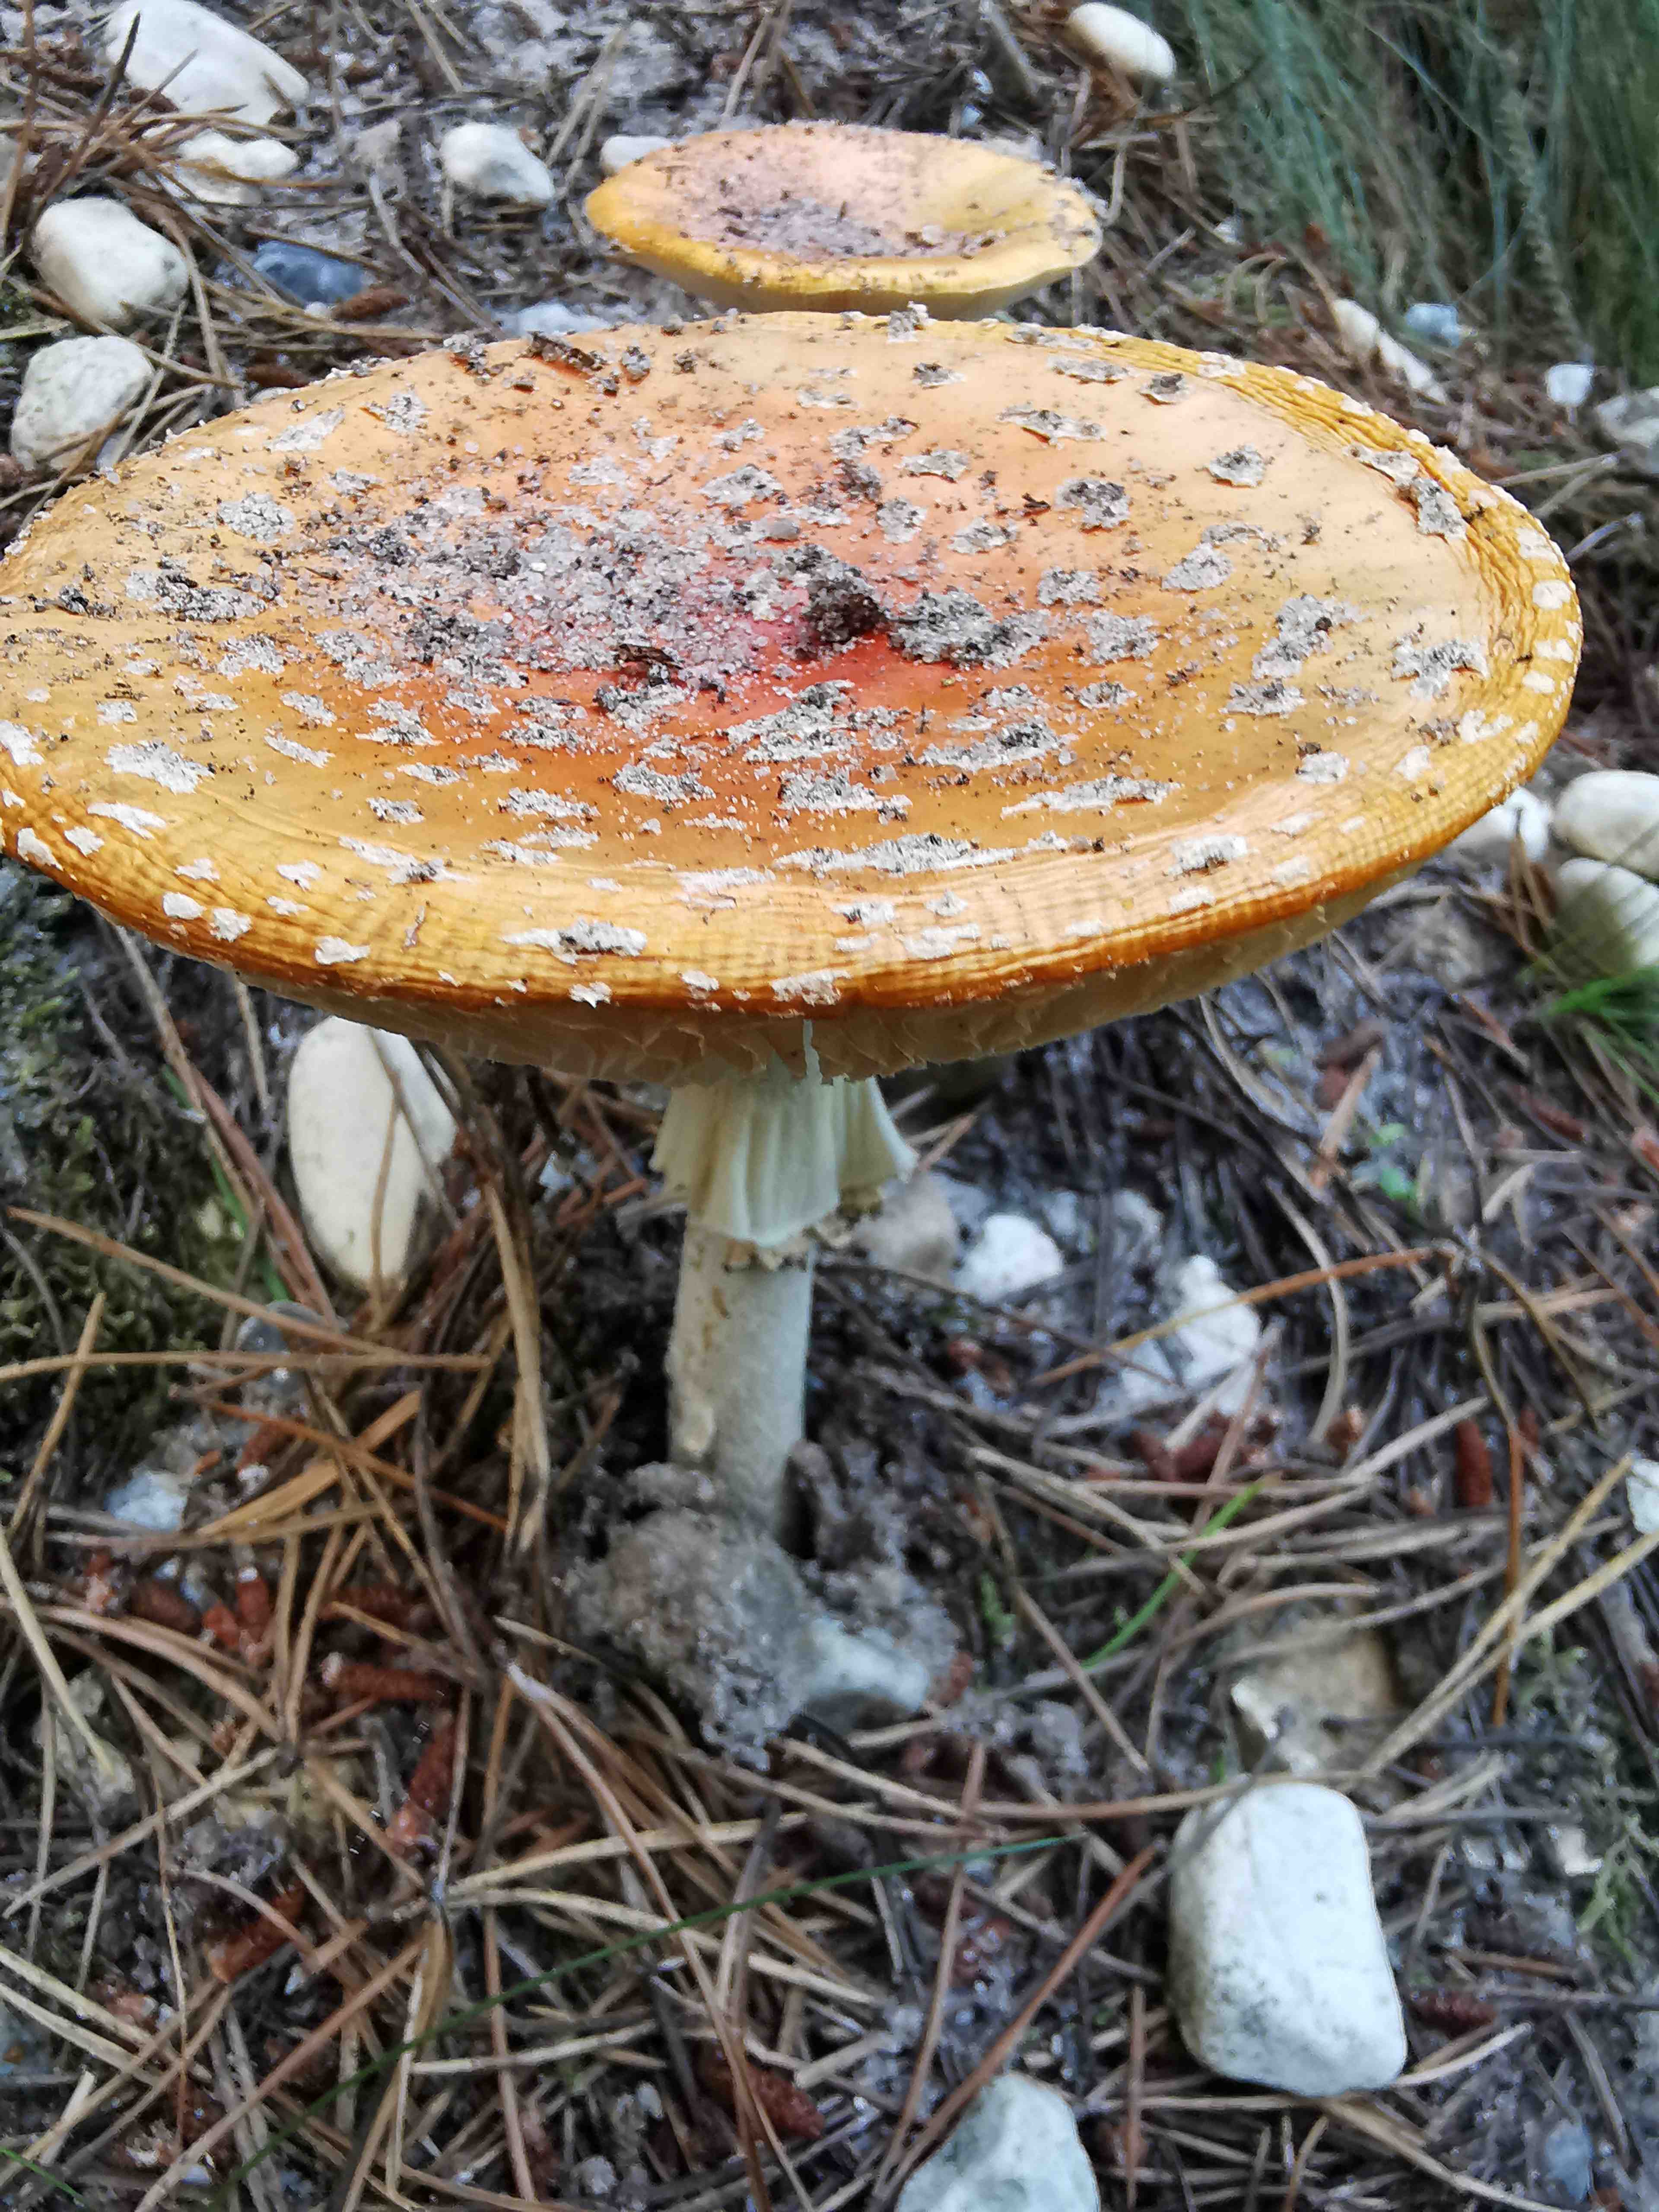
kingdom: Fungi
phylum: Basidiomycota
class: Agaricomycetes
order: Agaricales
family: Amanitaceae
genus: Amanita
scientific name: Amanita muscaria
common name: rød fluesvamp
